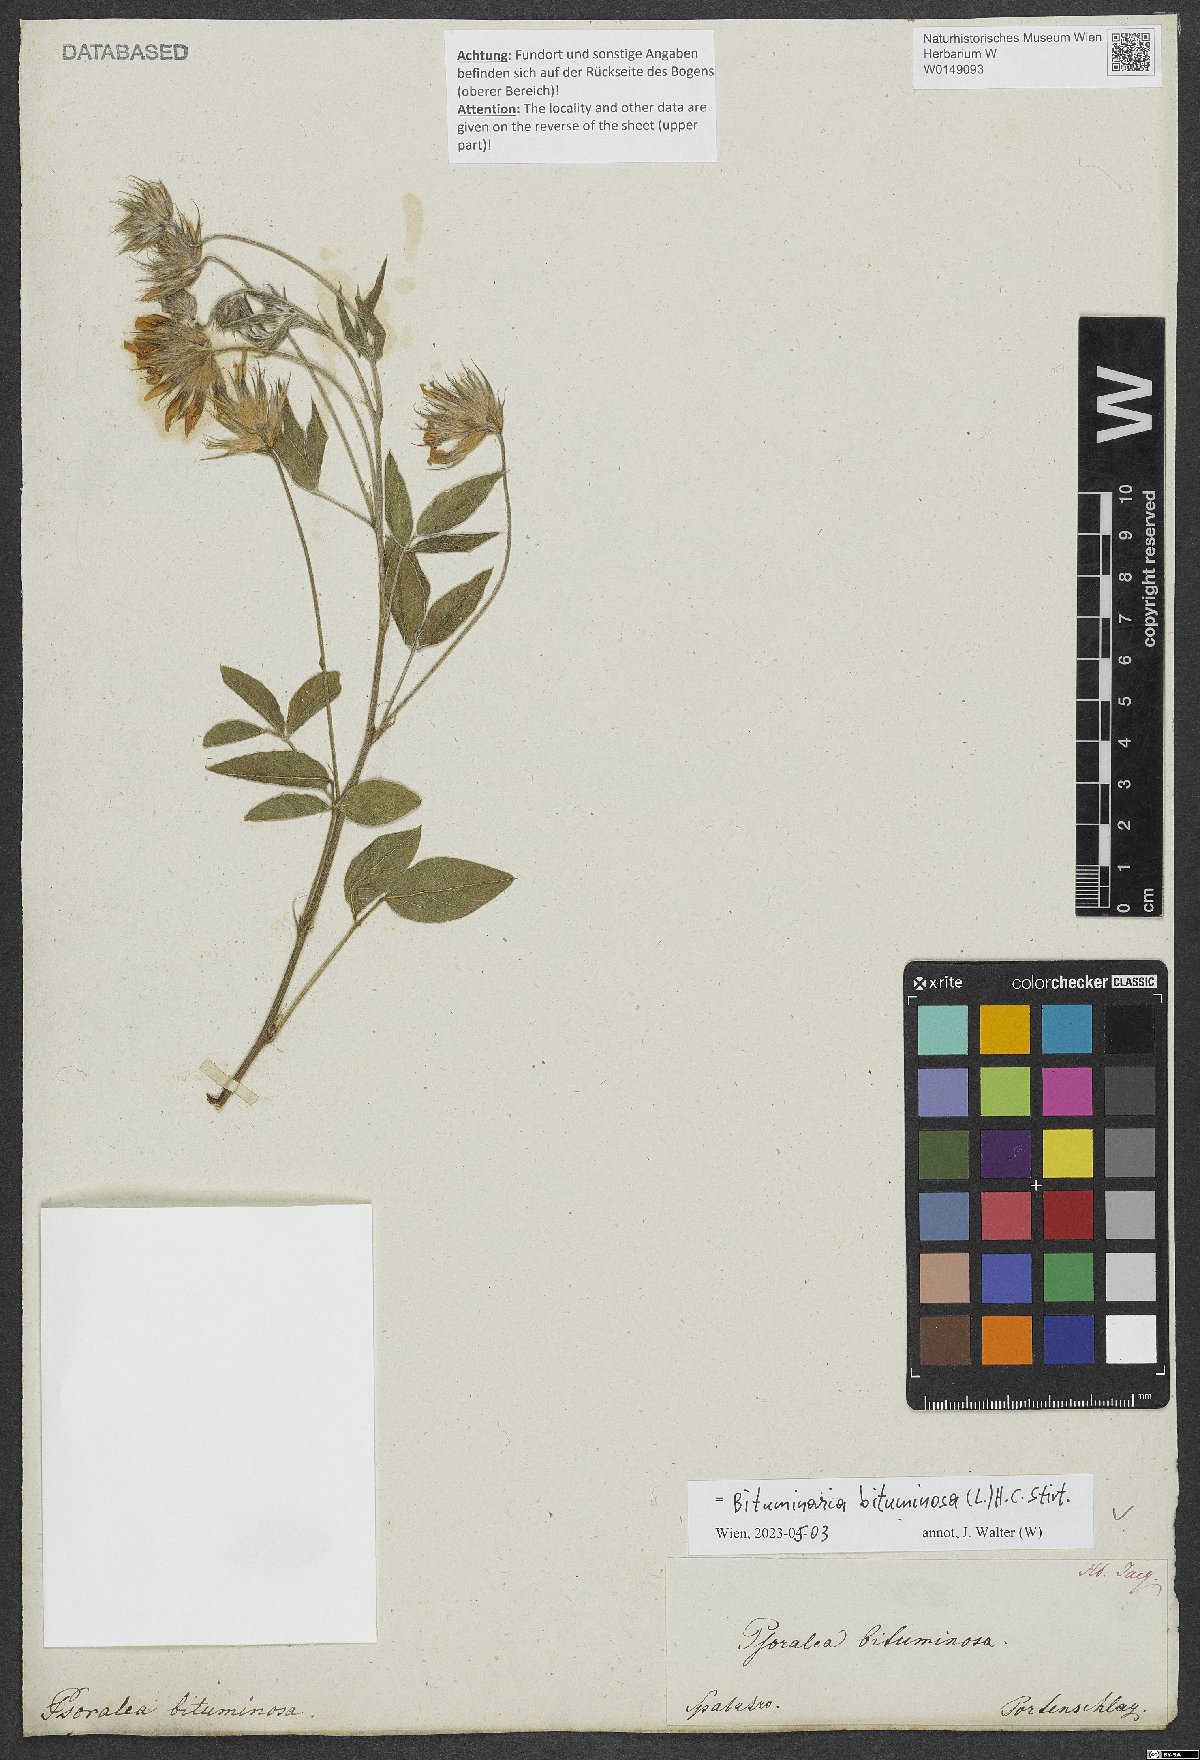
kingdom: Plantae
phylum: Tracheophyta
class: Magnoliopsida
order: Fabales
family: Fabaceae
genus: Bituminaria
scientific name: Bituminaria bituminosa
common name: Arabian pea
